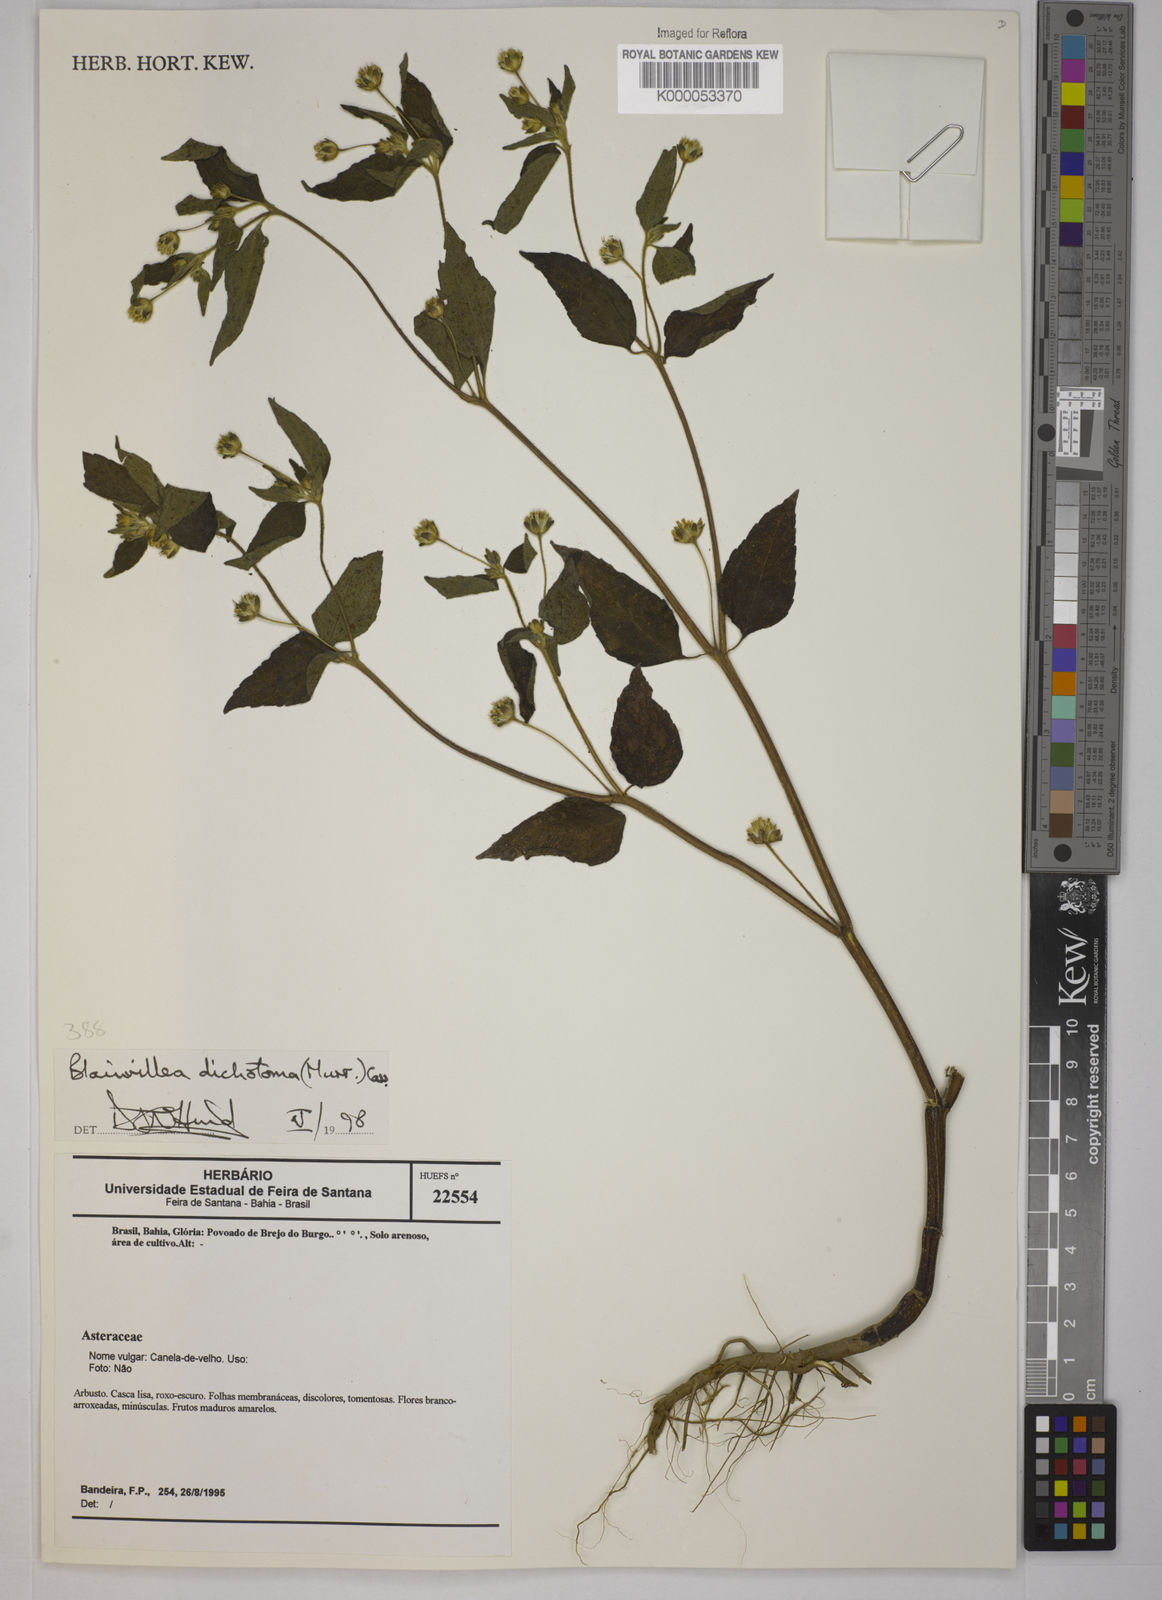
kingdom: Plantae
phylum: Tracheophyta
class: Magnoliopsida
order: Asterales
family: Asteraceae
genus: Blainvillea
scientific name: Blainvillea acmella
